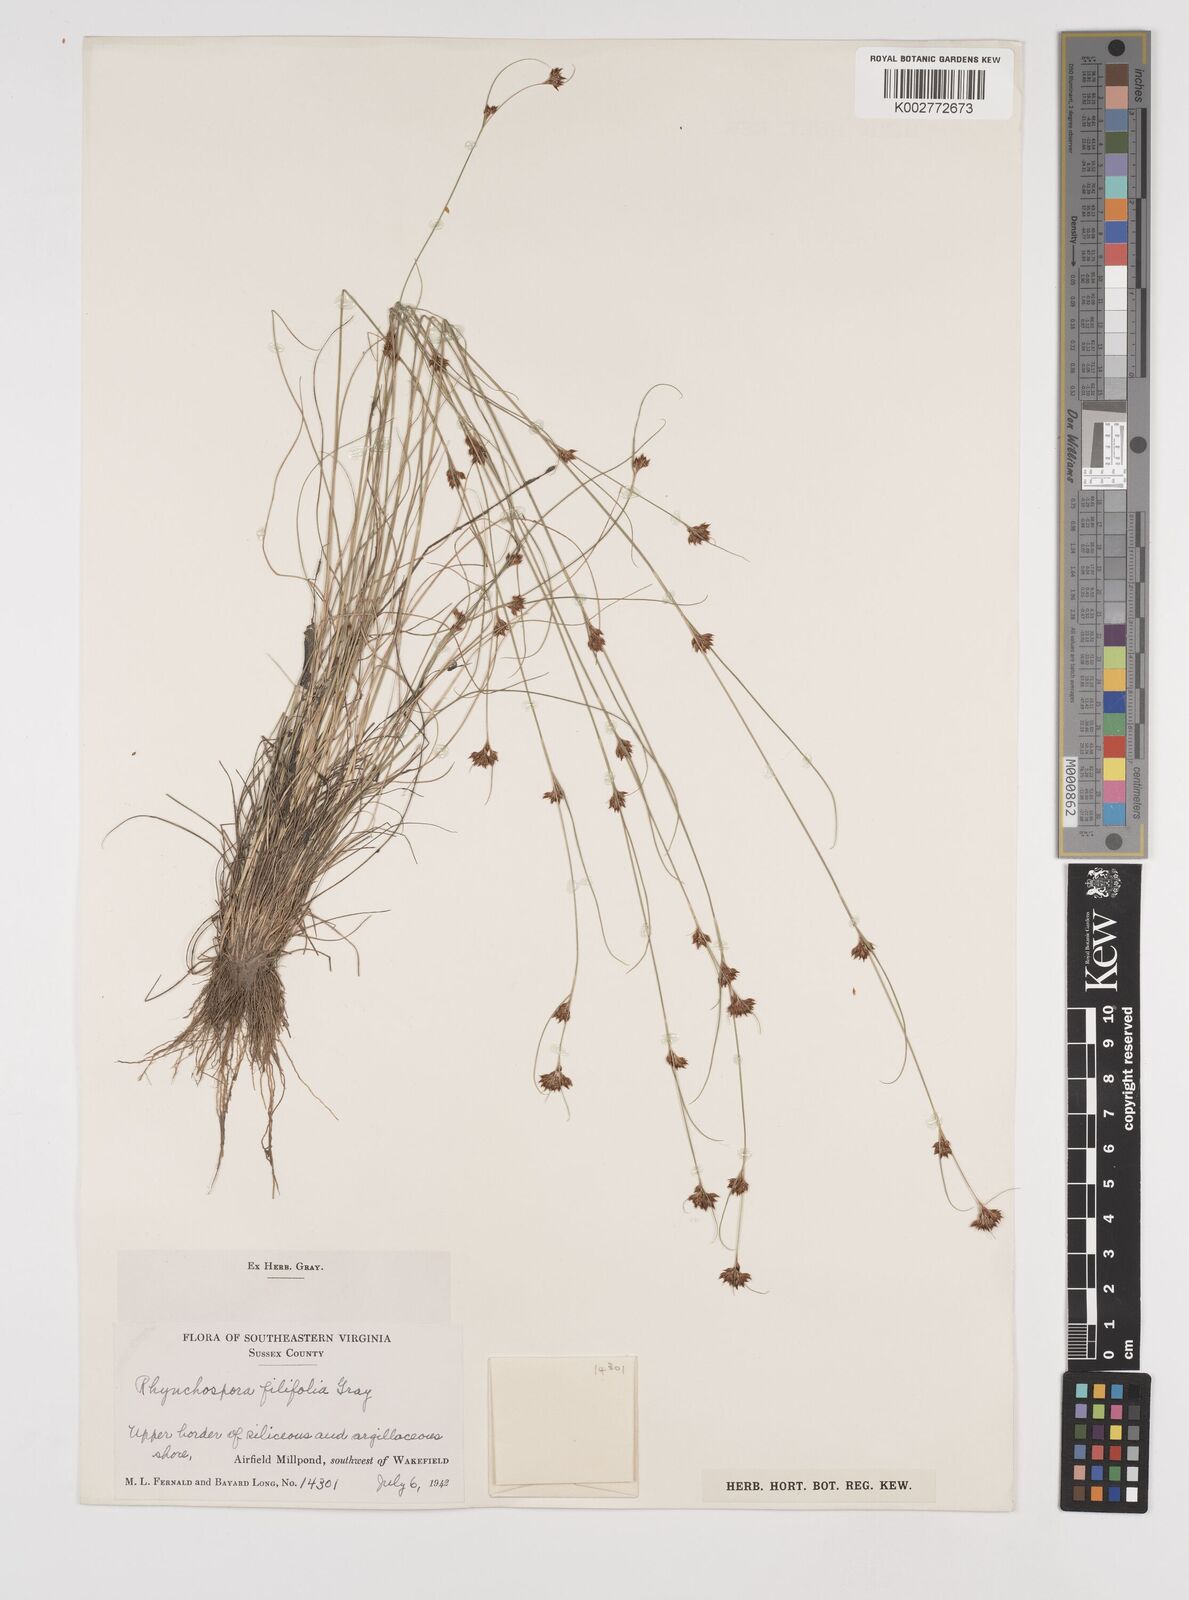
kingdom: Plantae
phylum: Tracheophyta
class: Liliopsida
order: Poales
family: Cyperaceae
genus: Rhynchospora
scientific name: Rhynchospora filifolia
